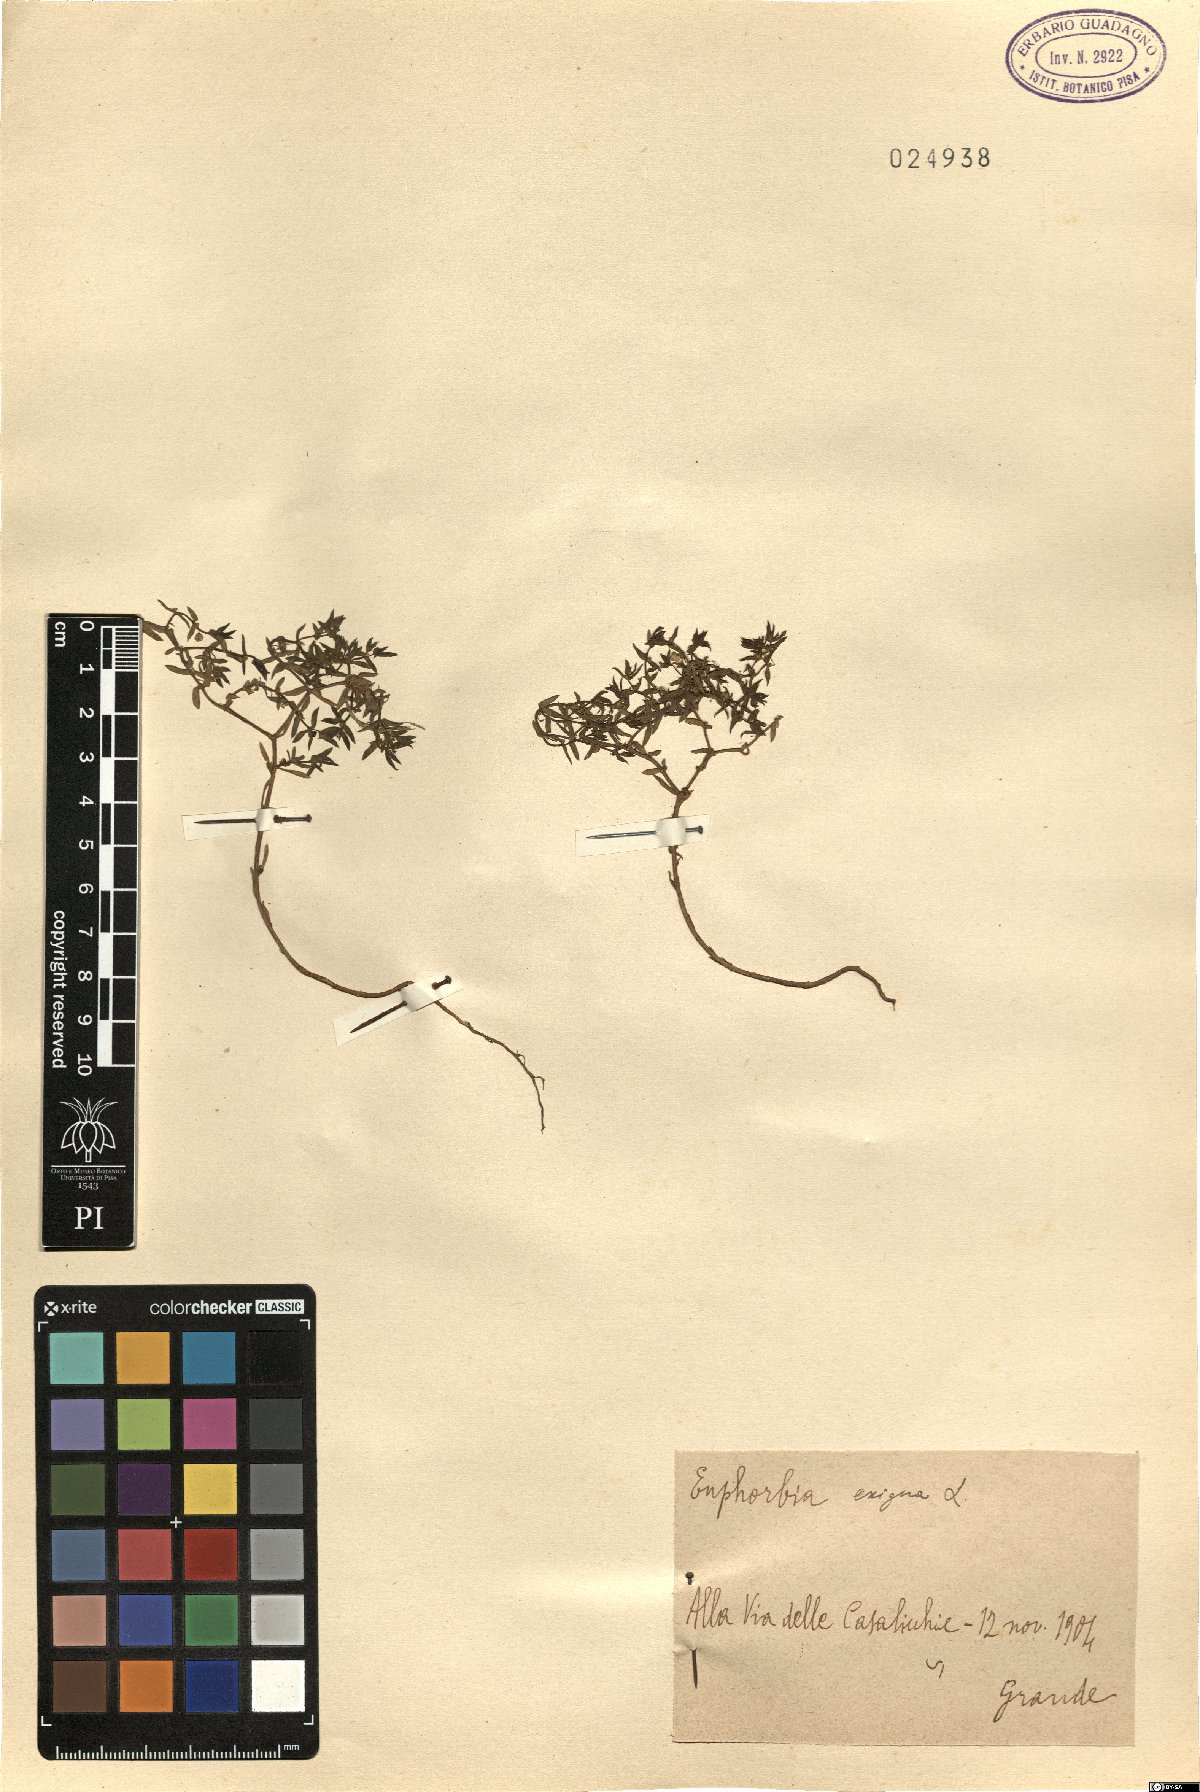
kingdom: Plantae
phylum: Tracheophyta
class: Magnoliopsida
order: Malpighiales
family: Euphorbiaceae
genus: Euphorbia
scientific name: Euphorbia exigua
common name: Dwarf spurge
